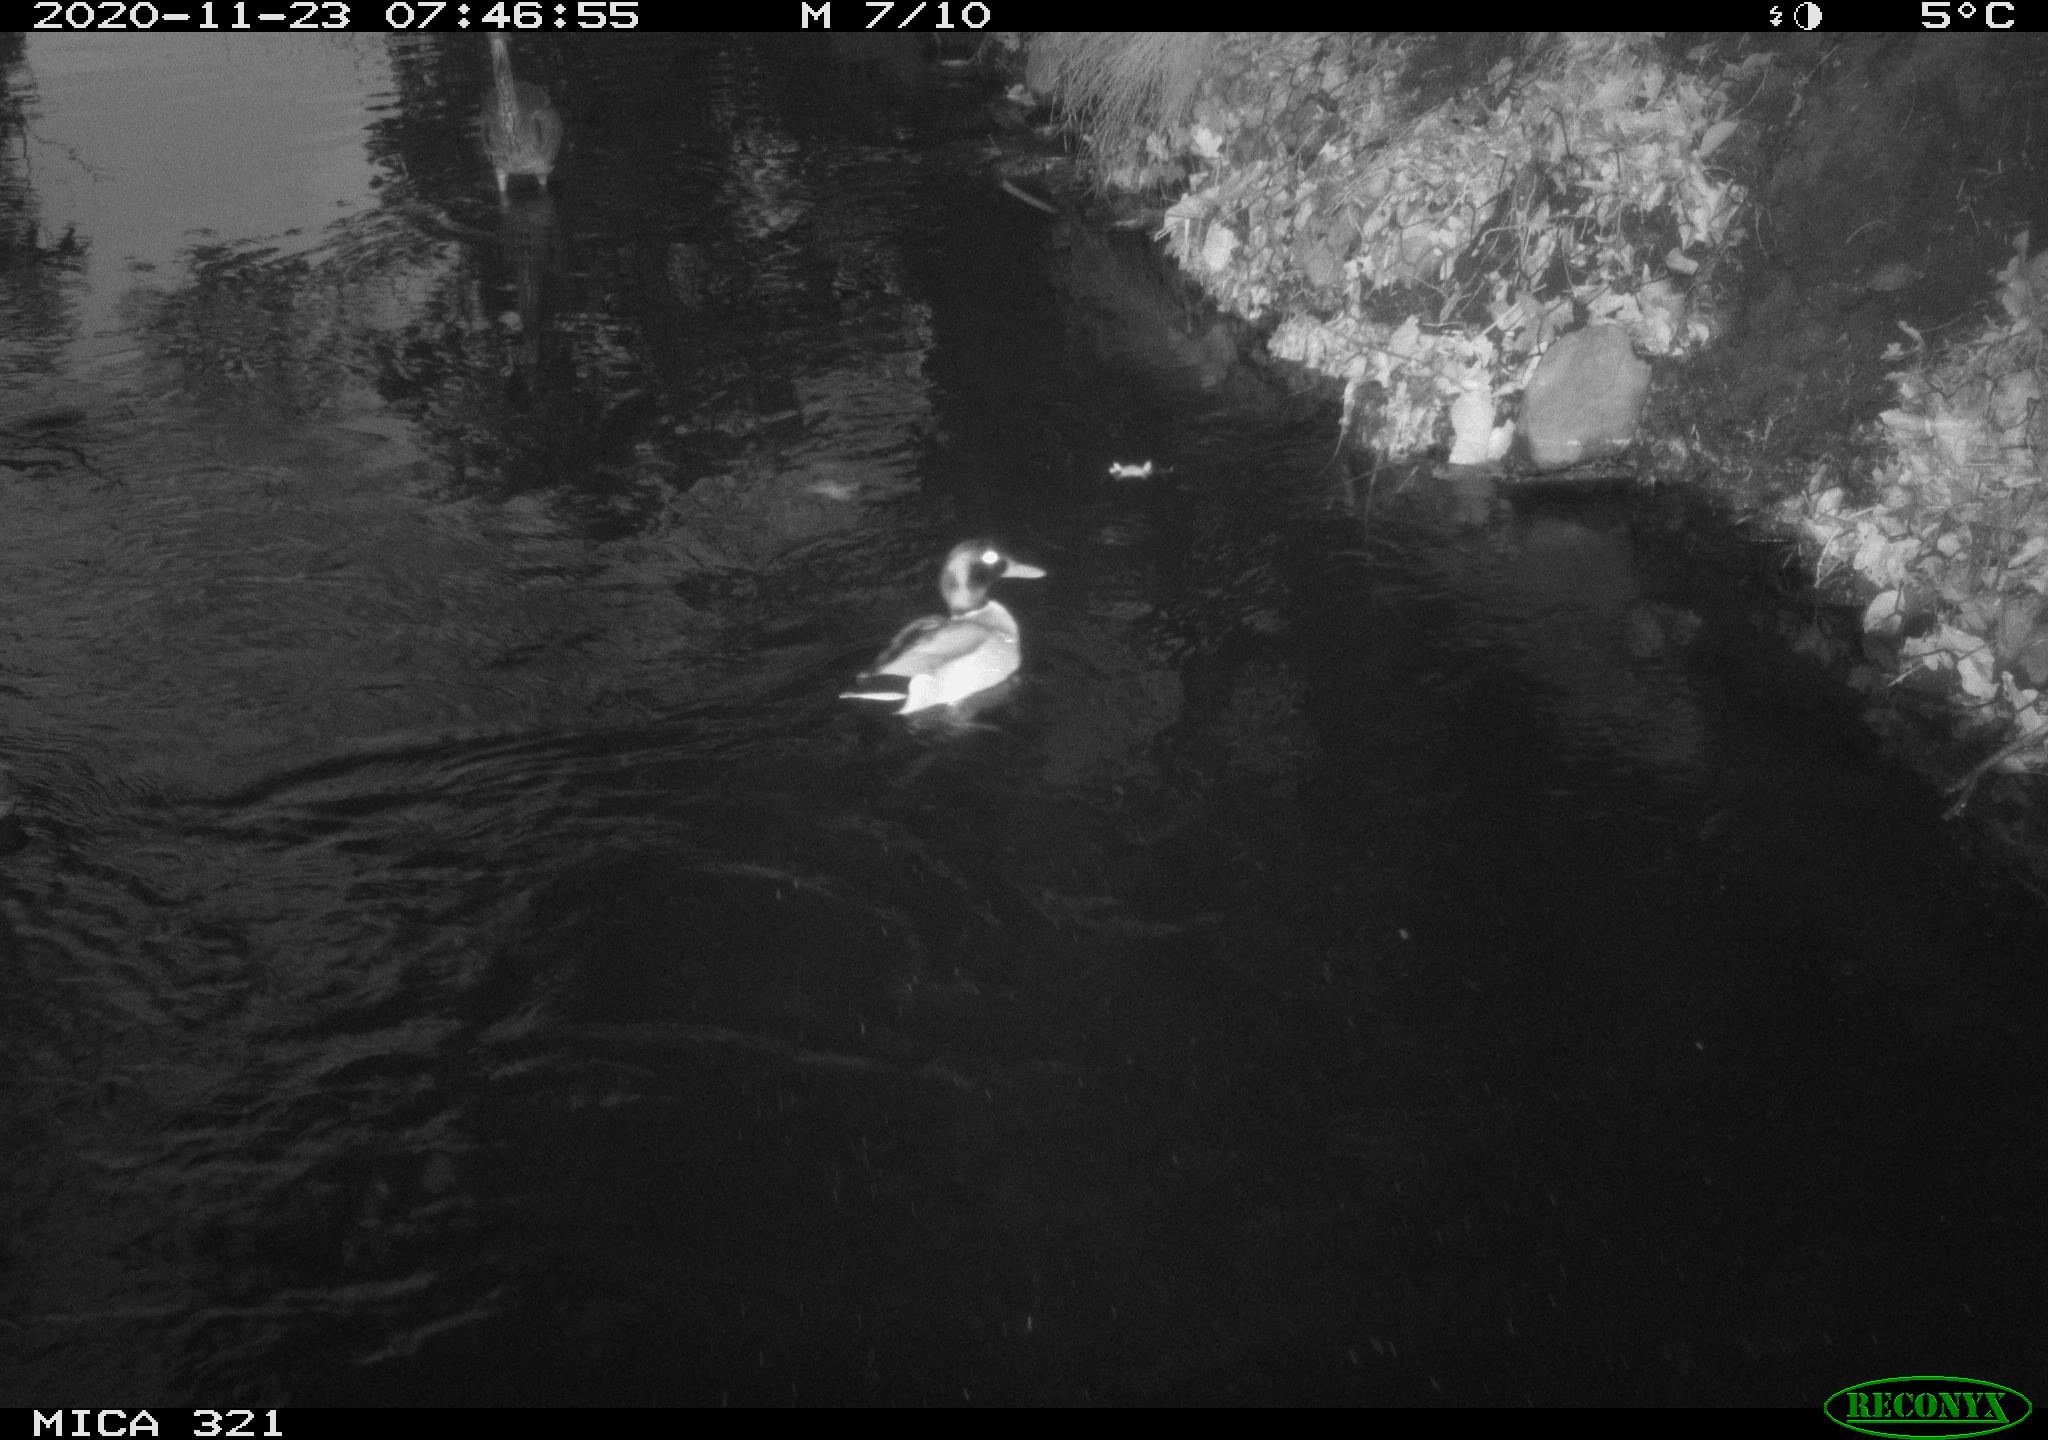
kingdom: Animalia
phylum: Chordata
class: Aves
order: Pelecaniformes
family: Ardeidae
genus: Ardea
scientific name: Ardea cinerea
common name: Grey heron
